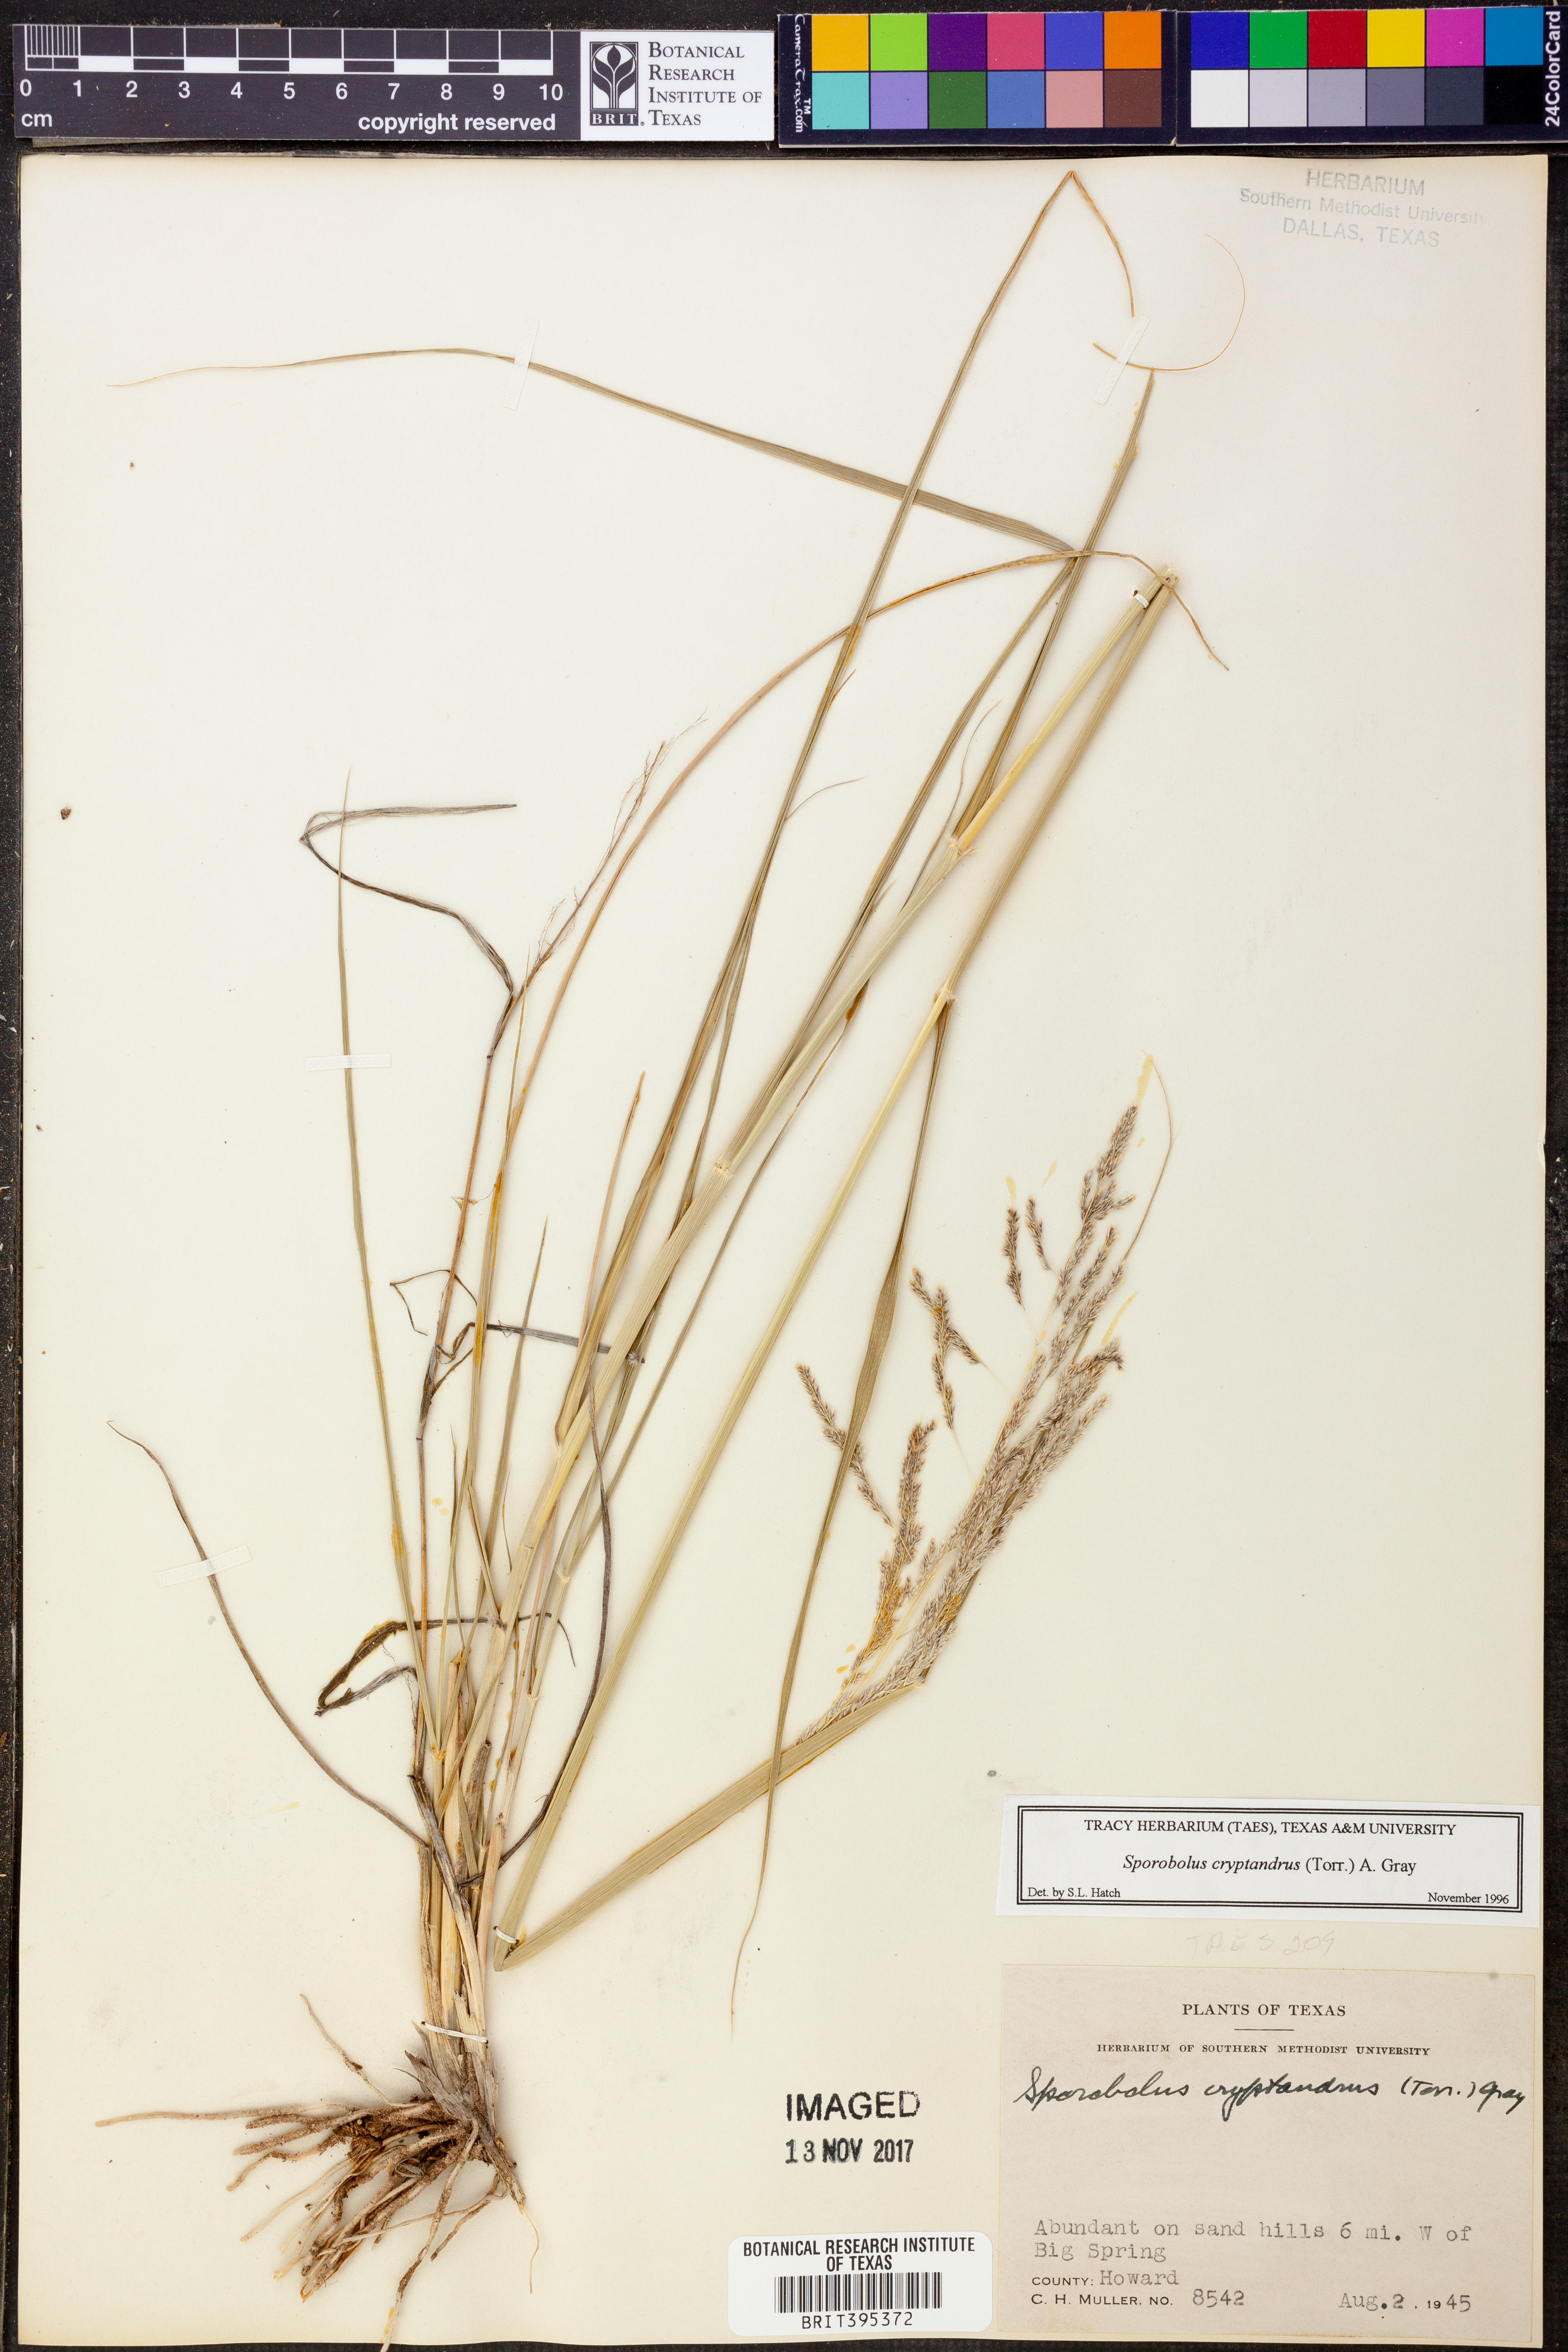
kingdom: Plantae
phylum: Tracheophyta
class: Liliopsida
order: Poales
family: Poaceae
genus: Sporobolus
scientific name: Sporobolus cryptandrus
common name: Sand dropseed
